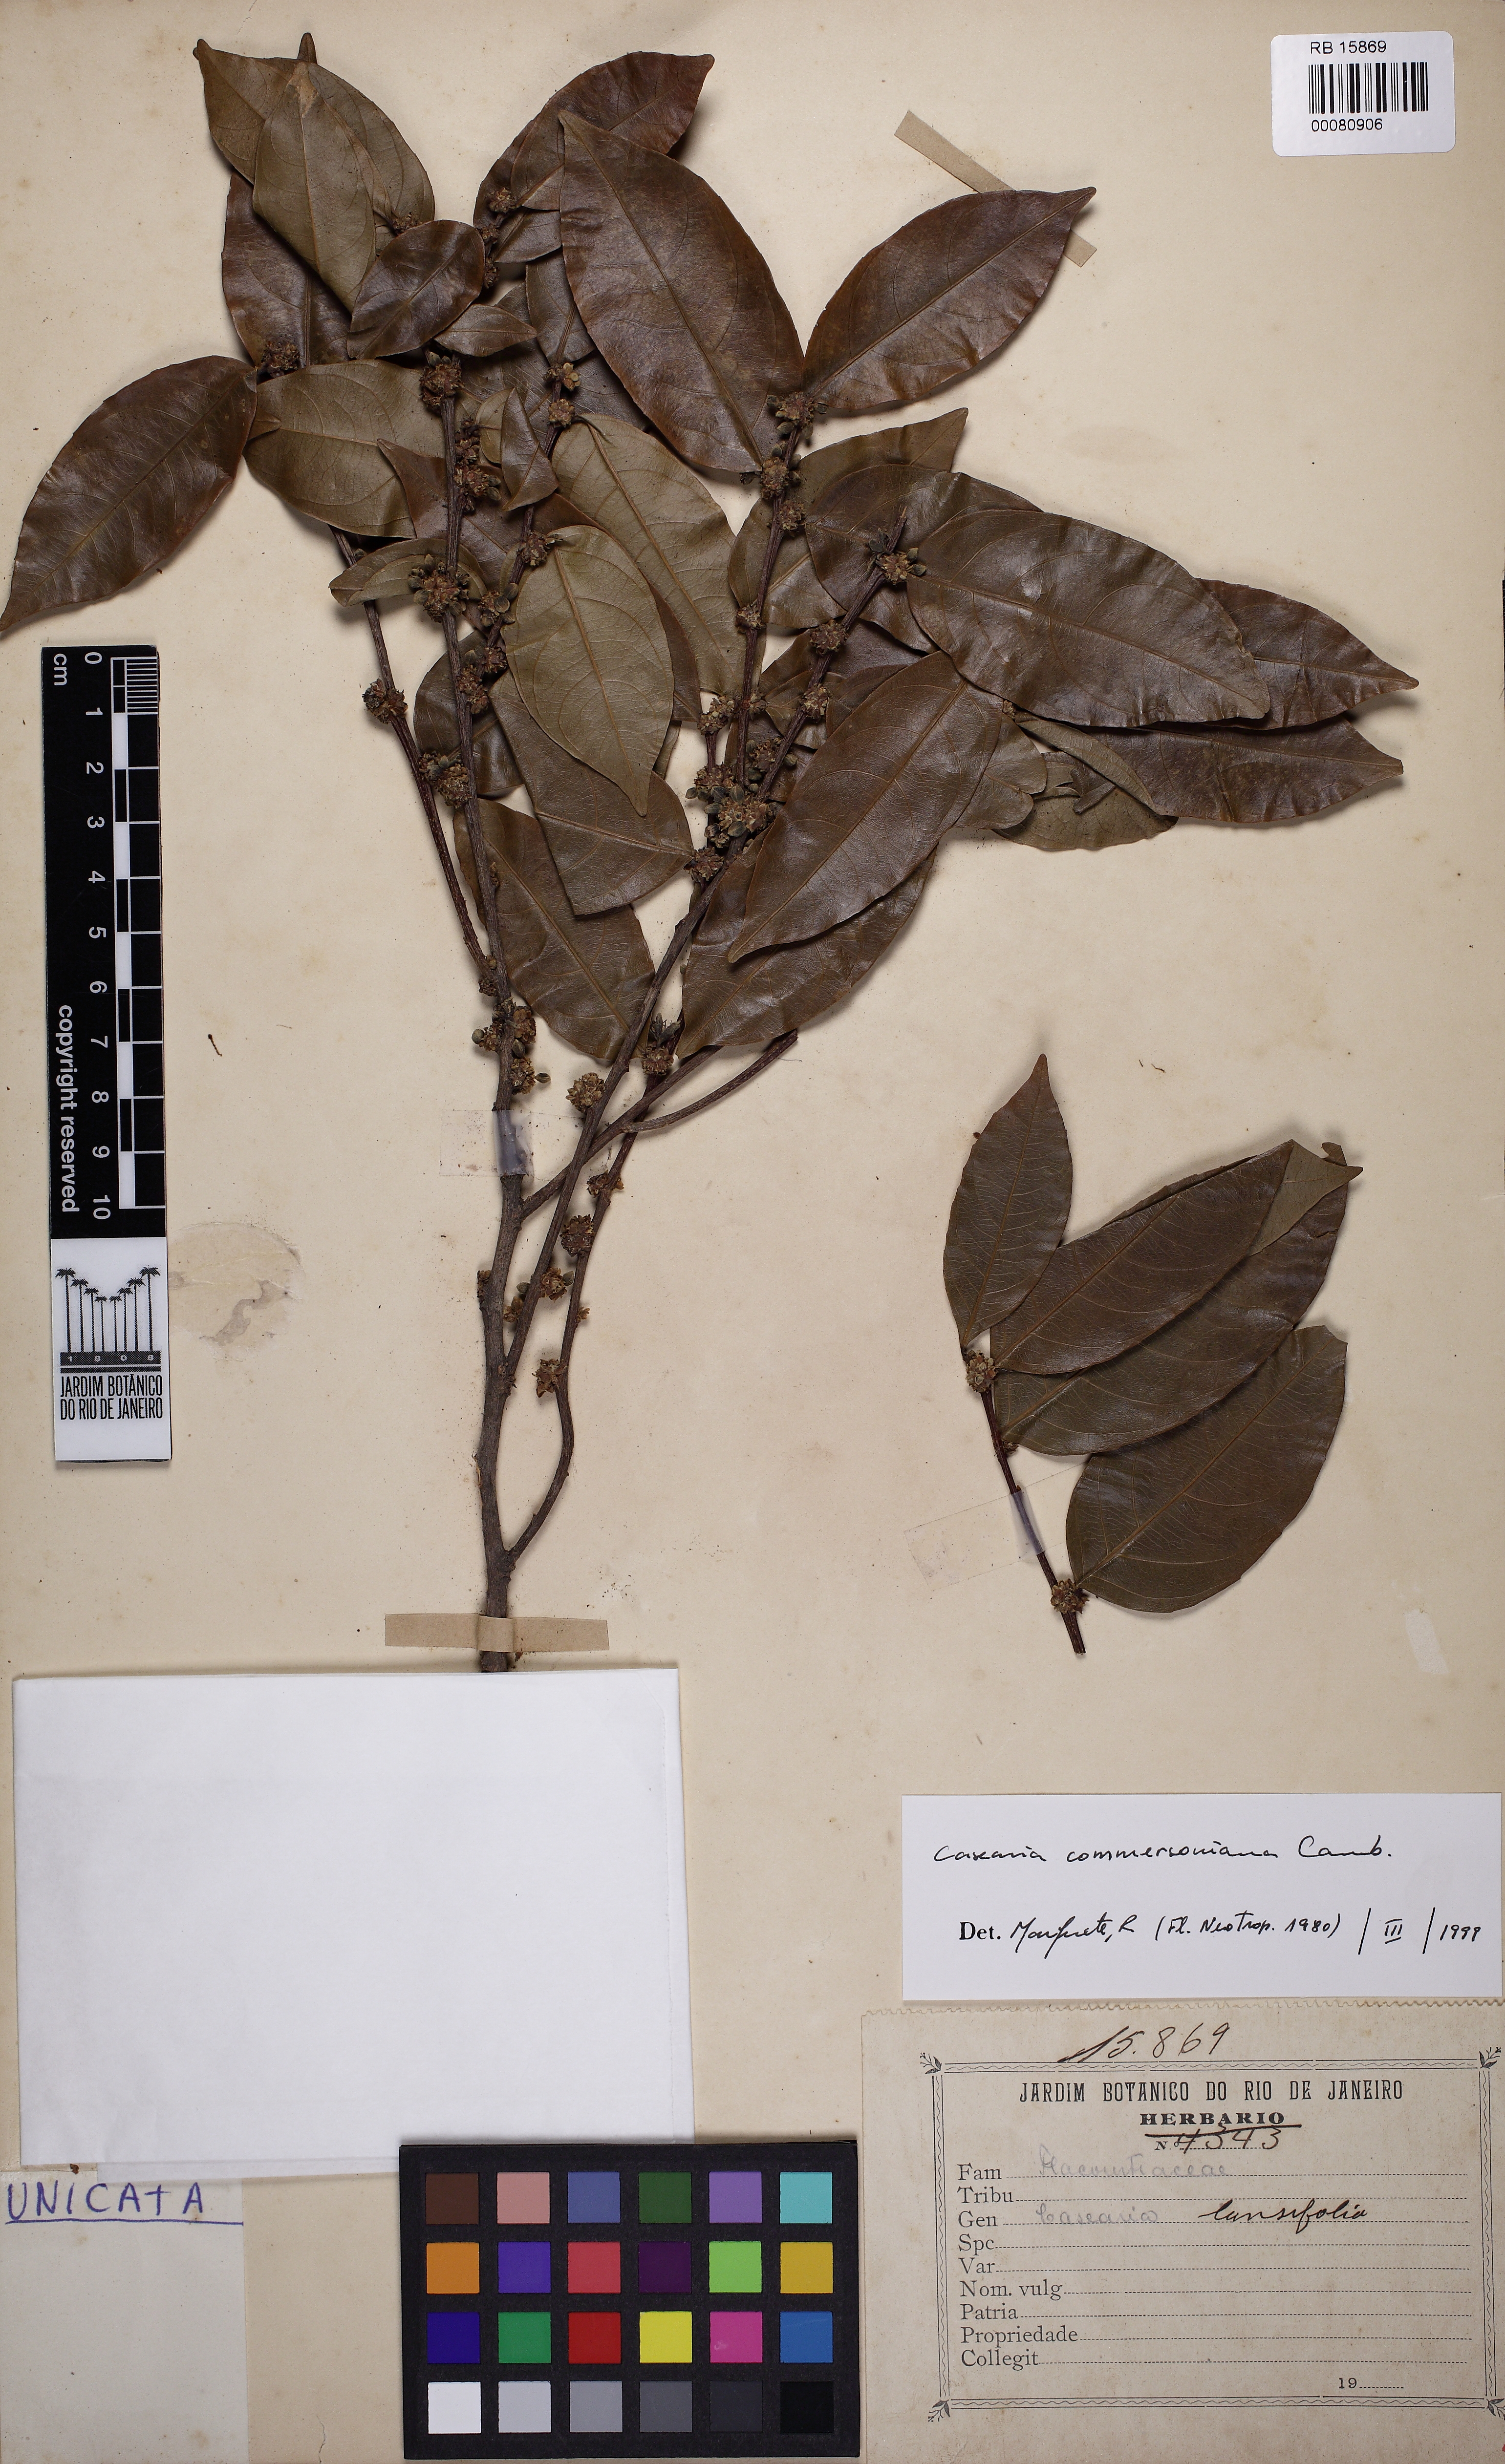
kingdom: Plantae
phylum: Tracheophyta
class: Magnoliopsida
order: Malpighiales
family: Salicaceae
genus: Piparea
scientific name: Piparea dentata
